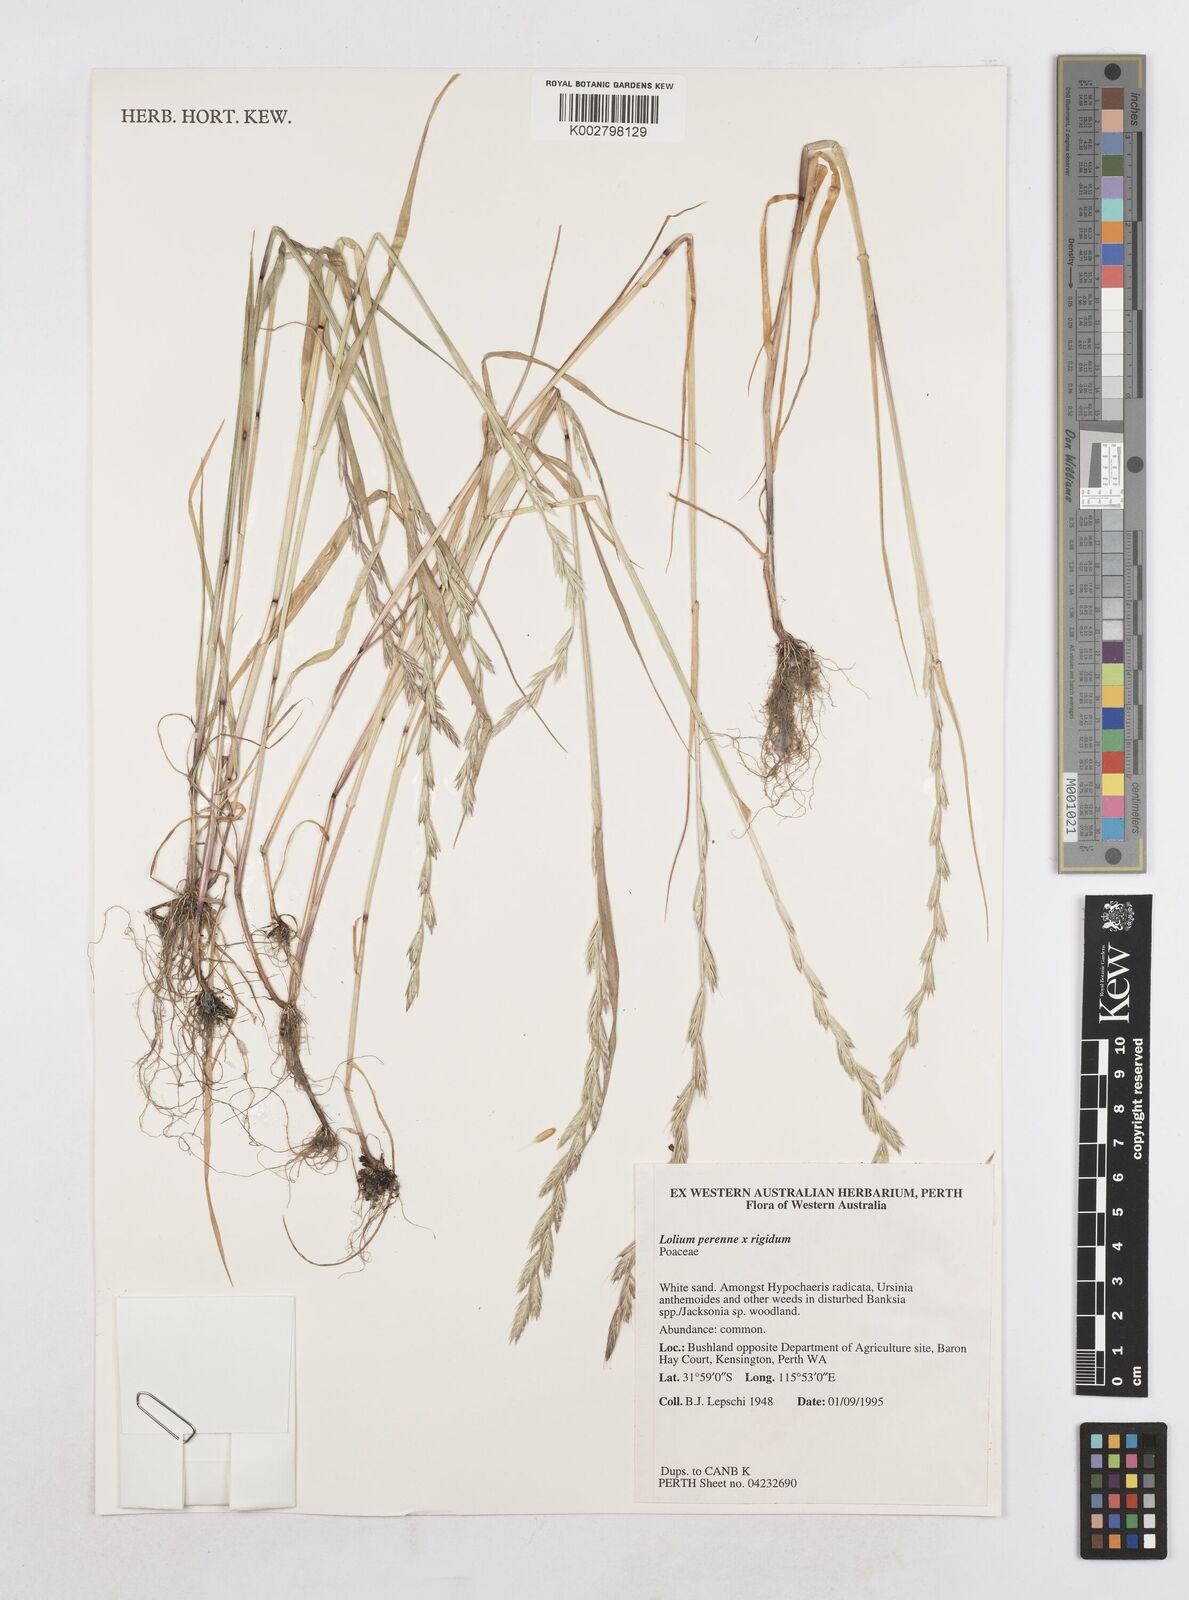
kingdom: Plantae
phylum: Tracheophyta
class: Liliopsida
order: Poales
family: Poaceae
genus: Lolium
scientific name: Lolium temulentum
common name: Darnel
